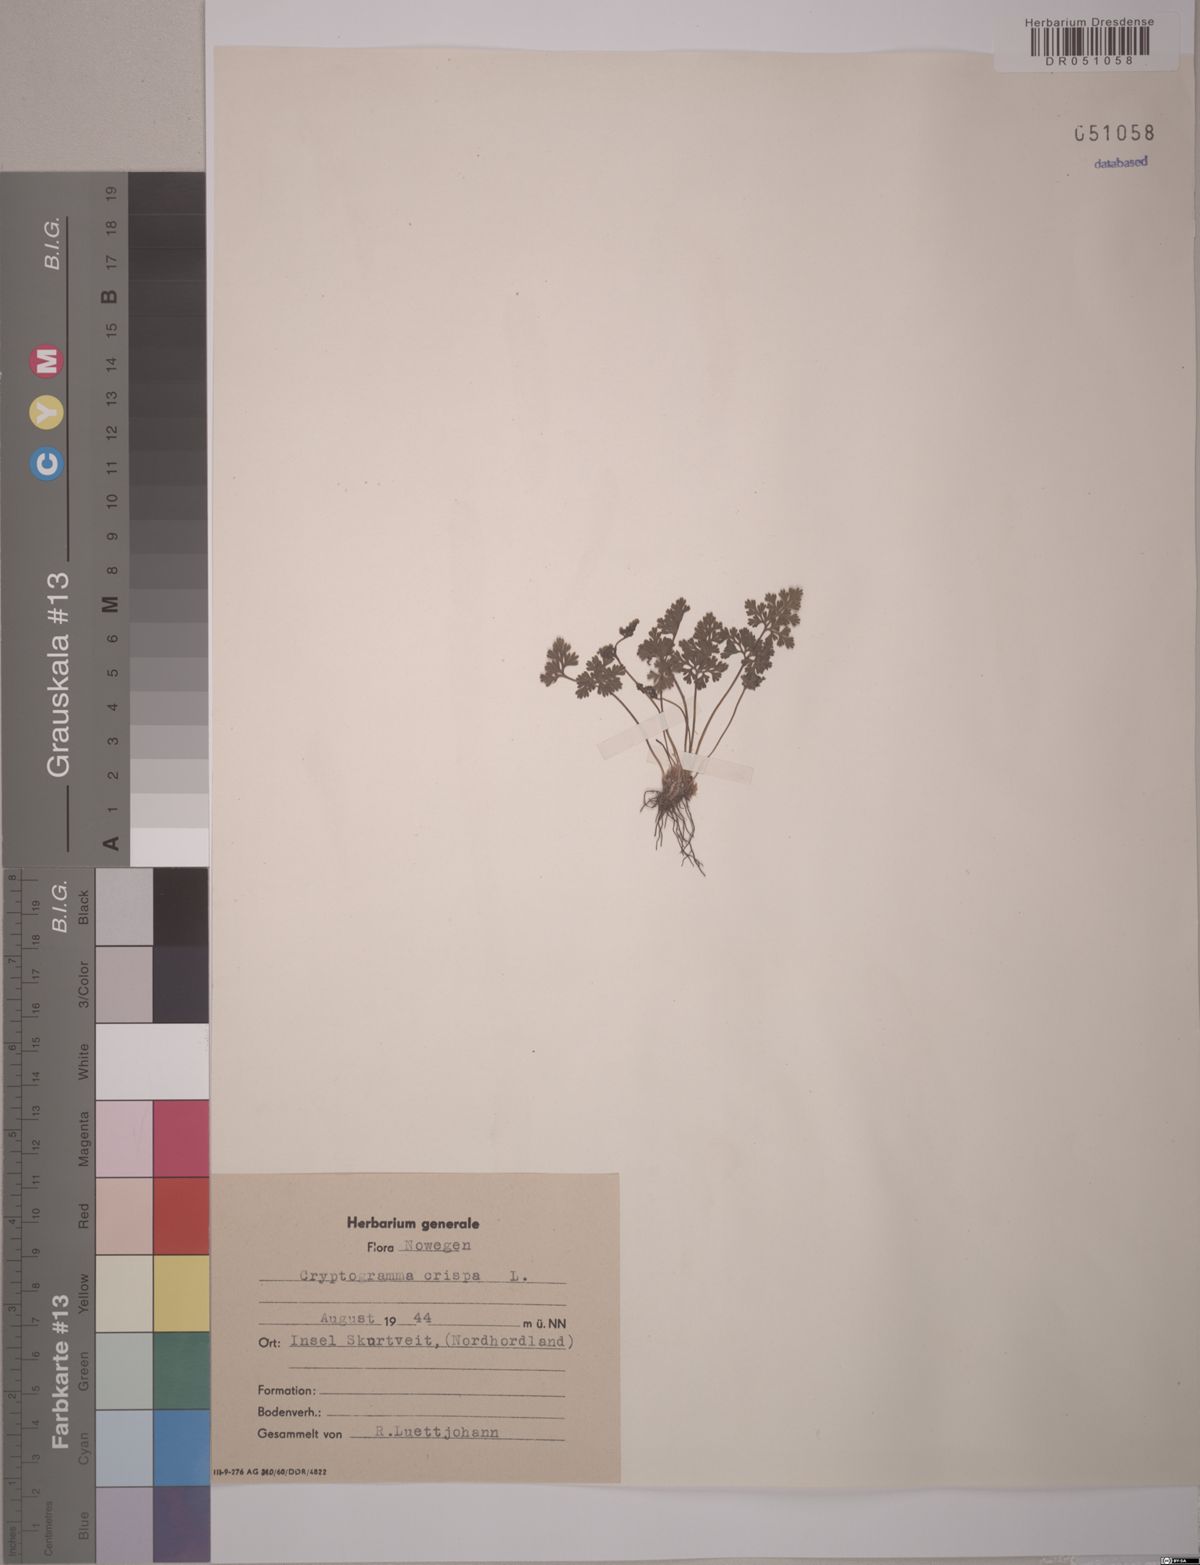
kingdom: Plantae
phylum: Tracheophyta
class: Polypodiopsida
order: Polypodiales
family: Pteridaceae
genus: Cryptogramma
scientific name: Cryptogramma crispa
